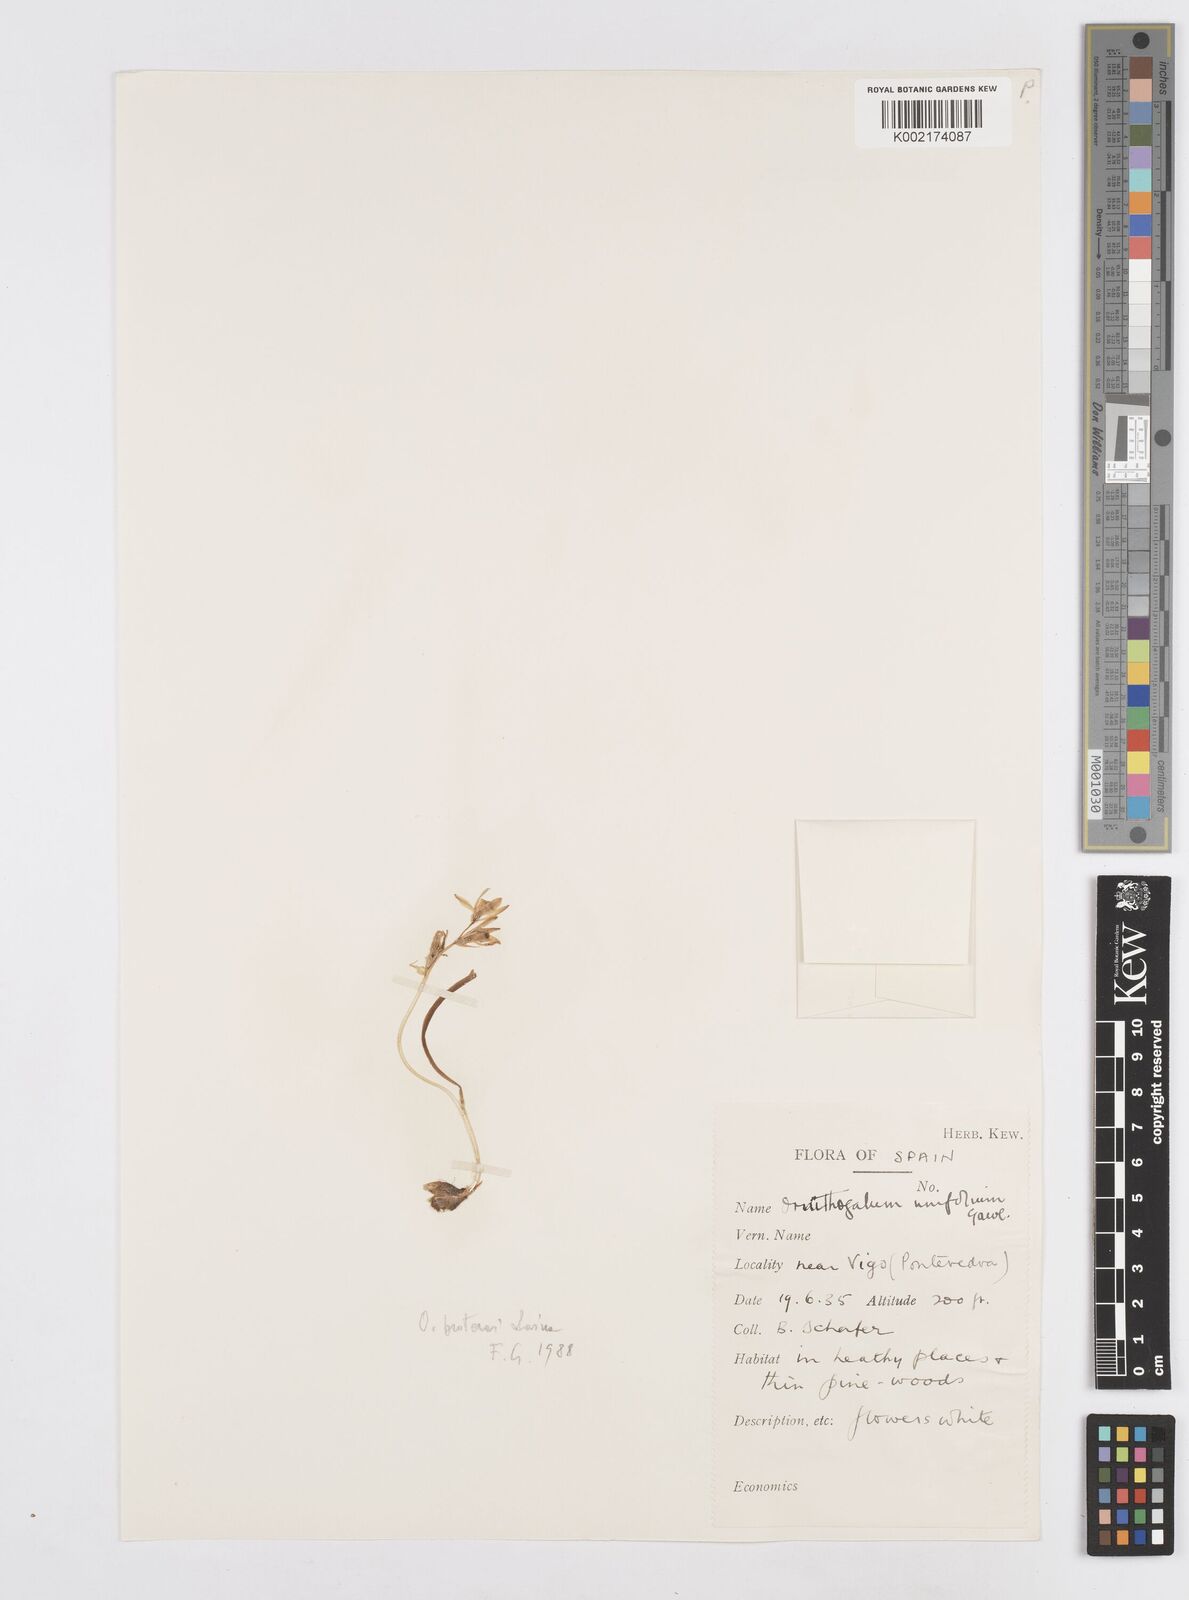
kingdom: Plantae
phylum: Tracheophyta
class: Liliopsida
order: Asparagales
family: Asparagaceae
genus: Ornithogalum
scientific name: Ornithogalum broteroi
